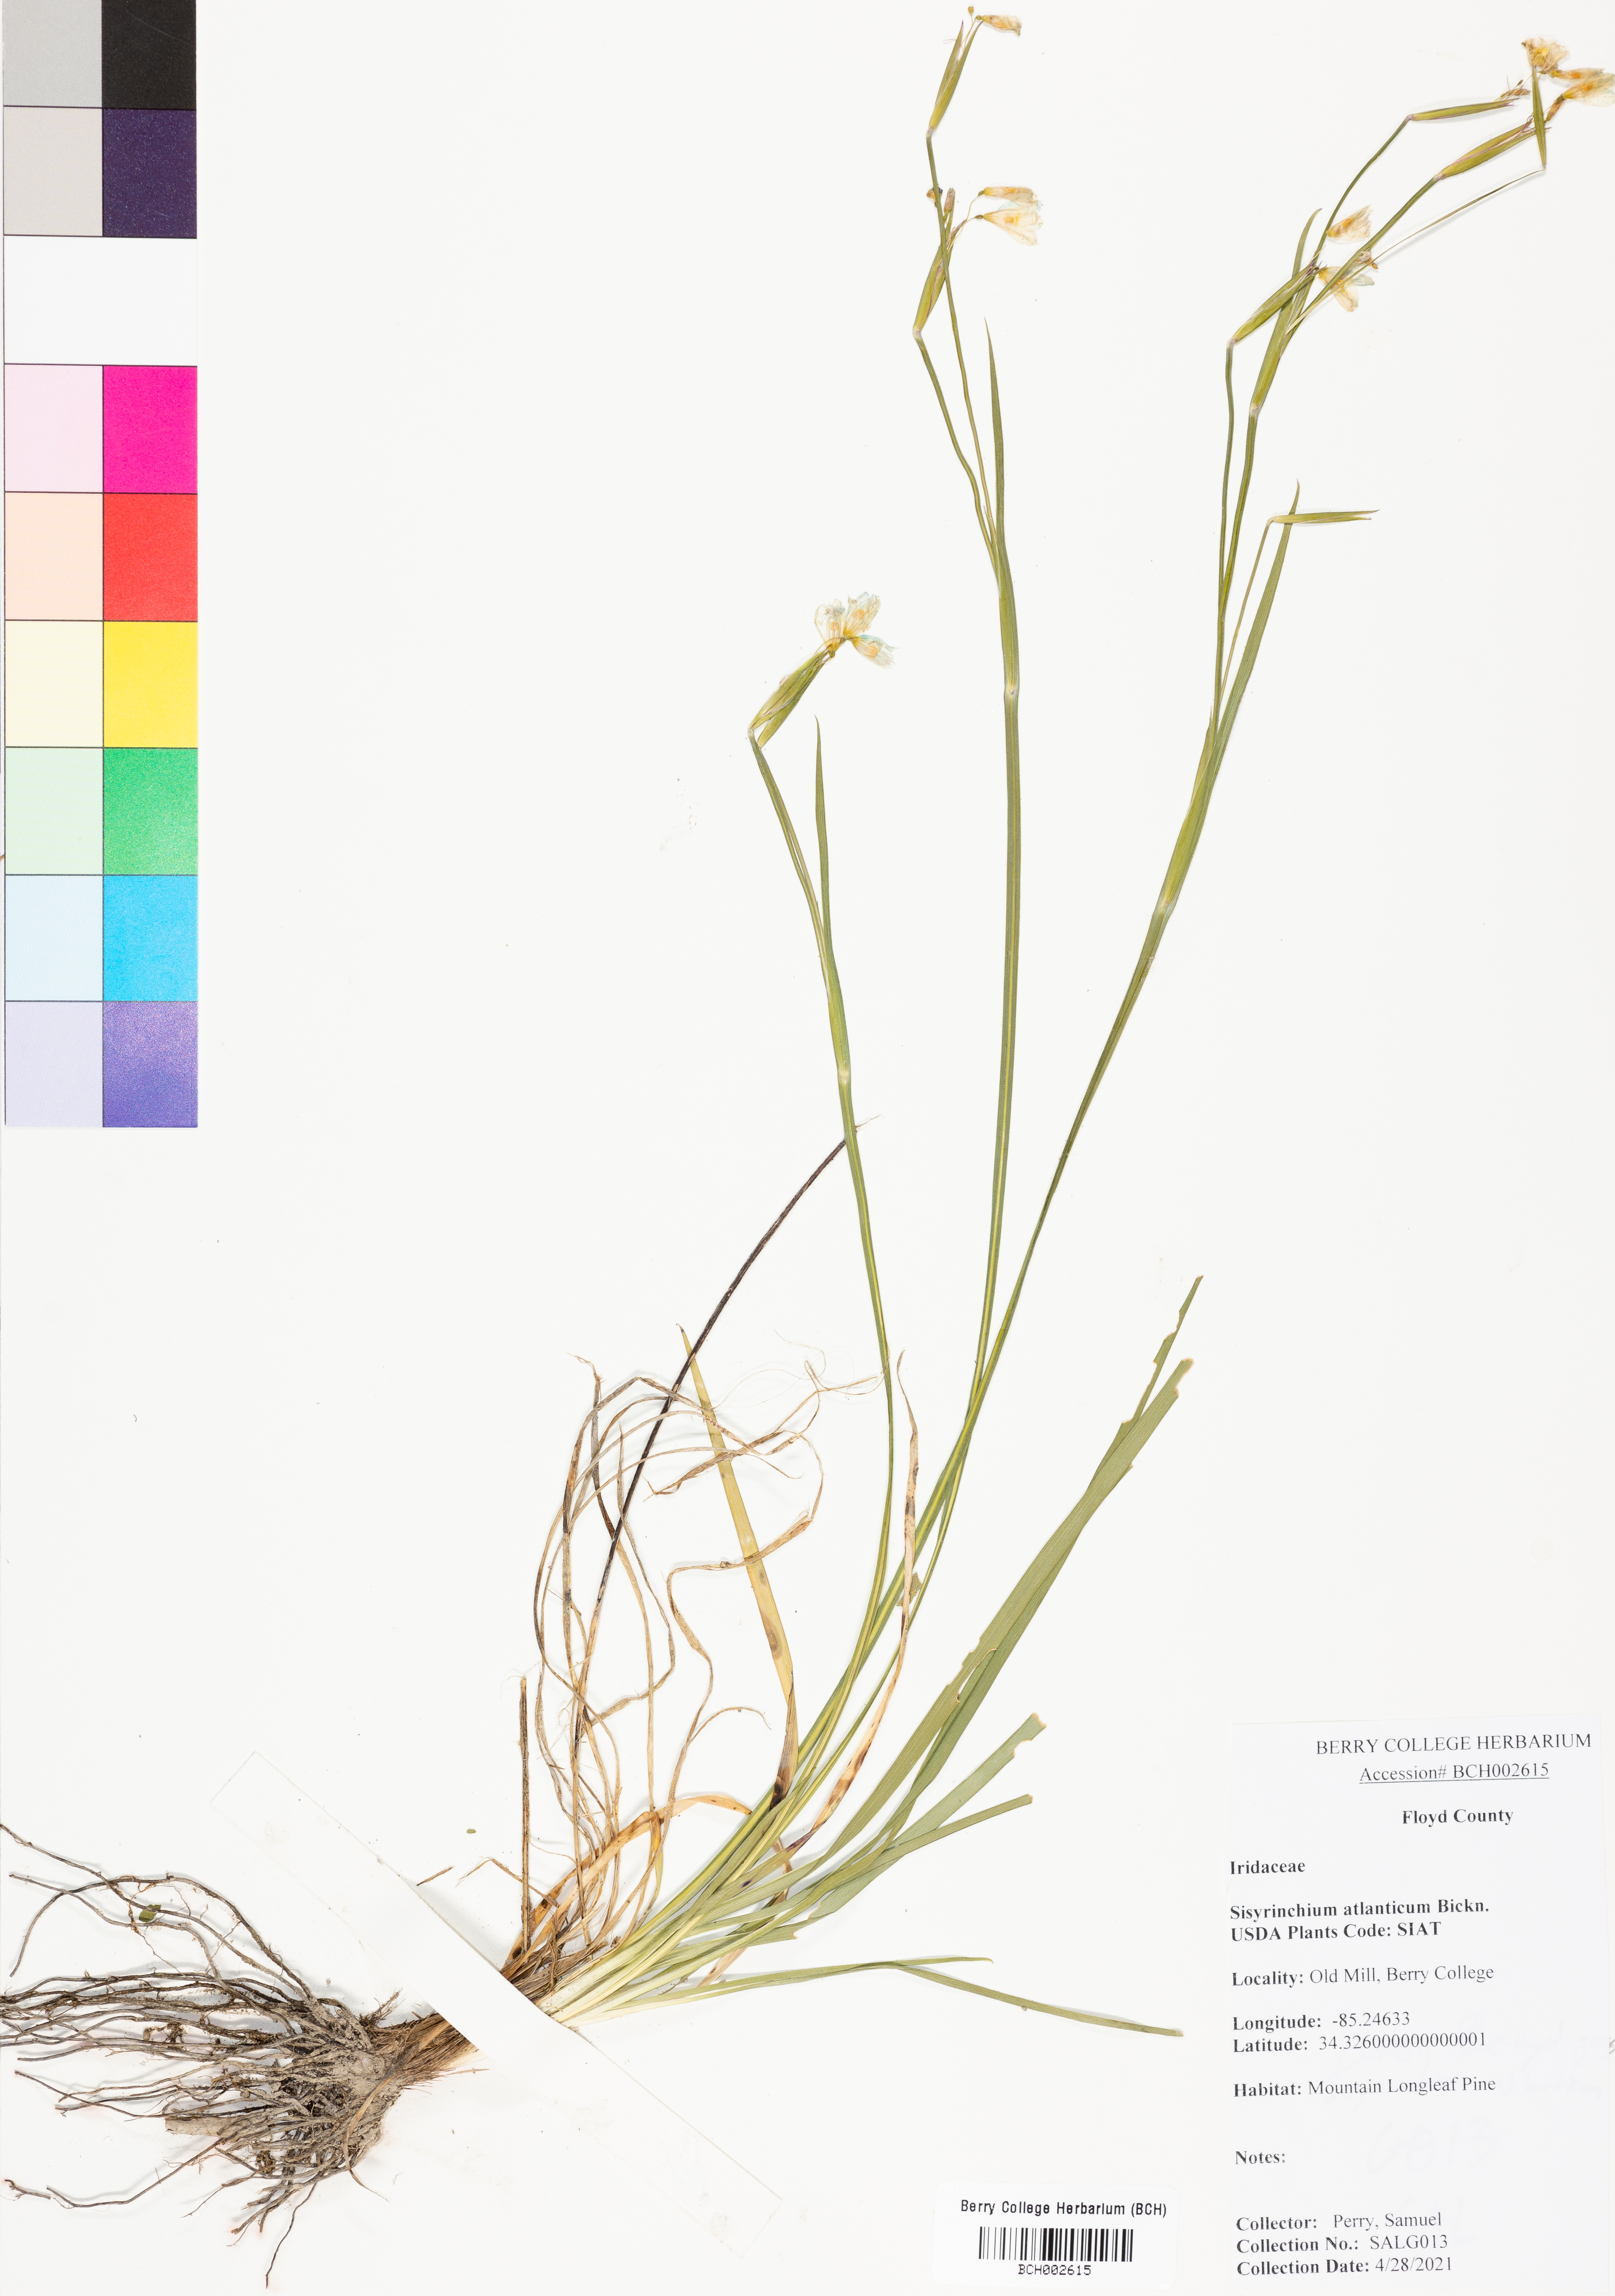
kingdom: Plantae
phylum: Tracheophyta
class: Liliopsida
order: Asparagales
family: Iridaceae
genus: Sisyrinchium
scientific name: Sisyrinchium atlanticum
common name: Eastern blue-eyed-grass
